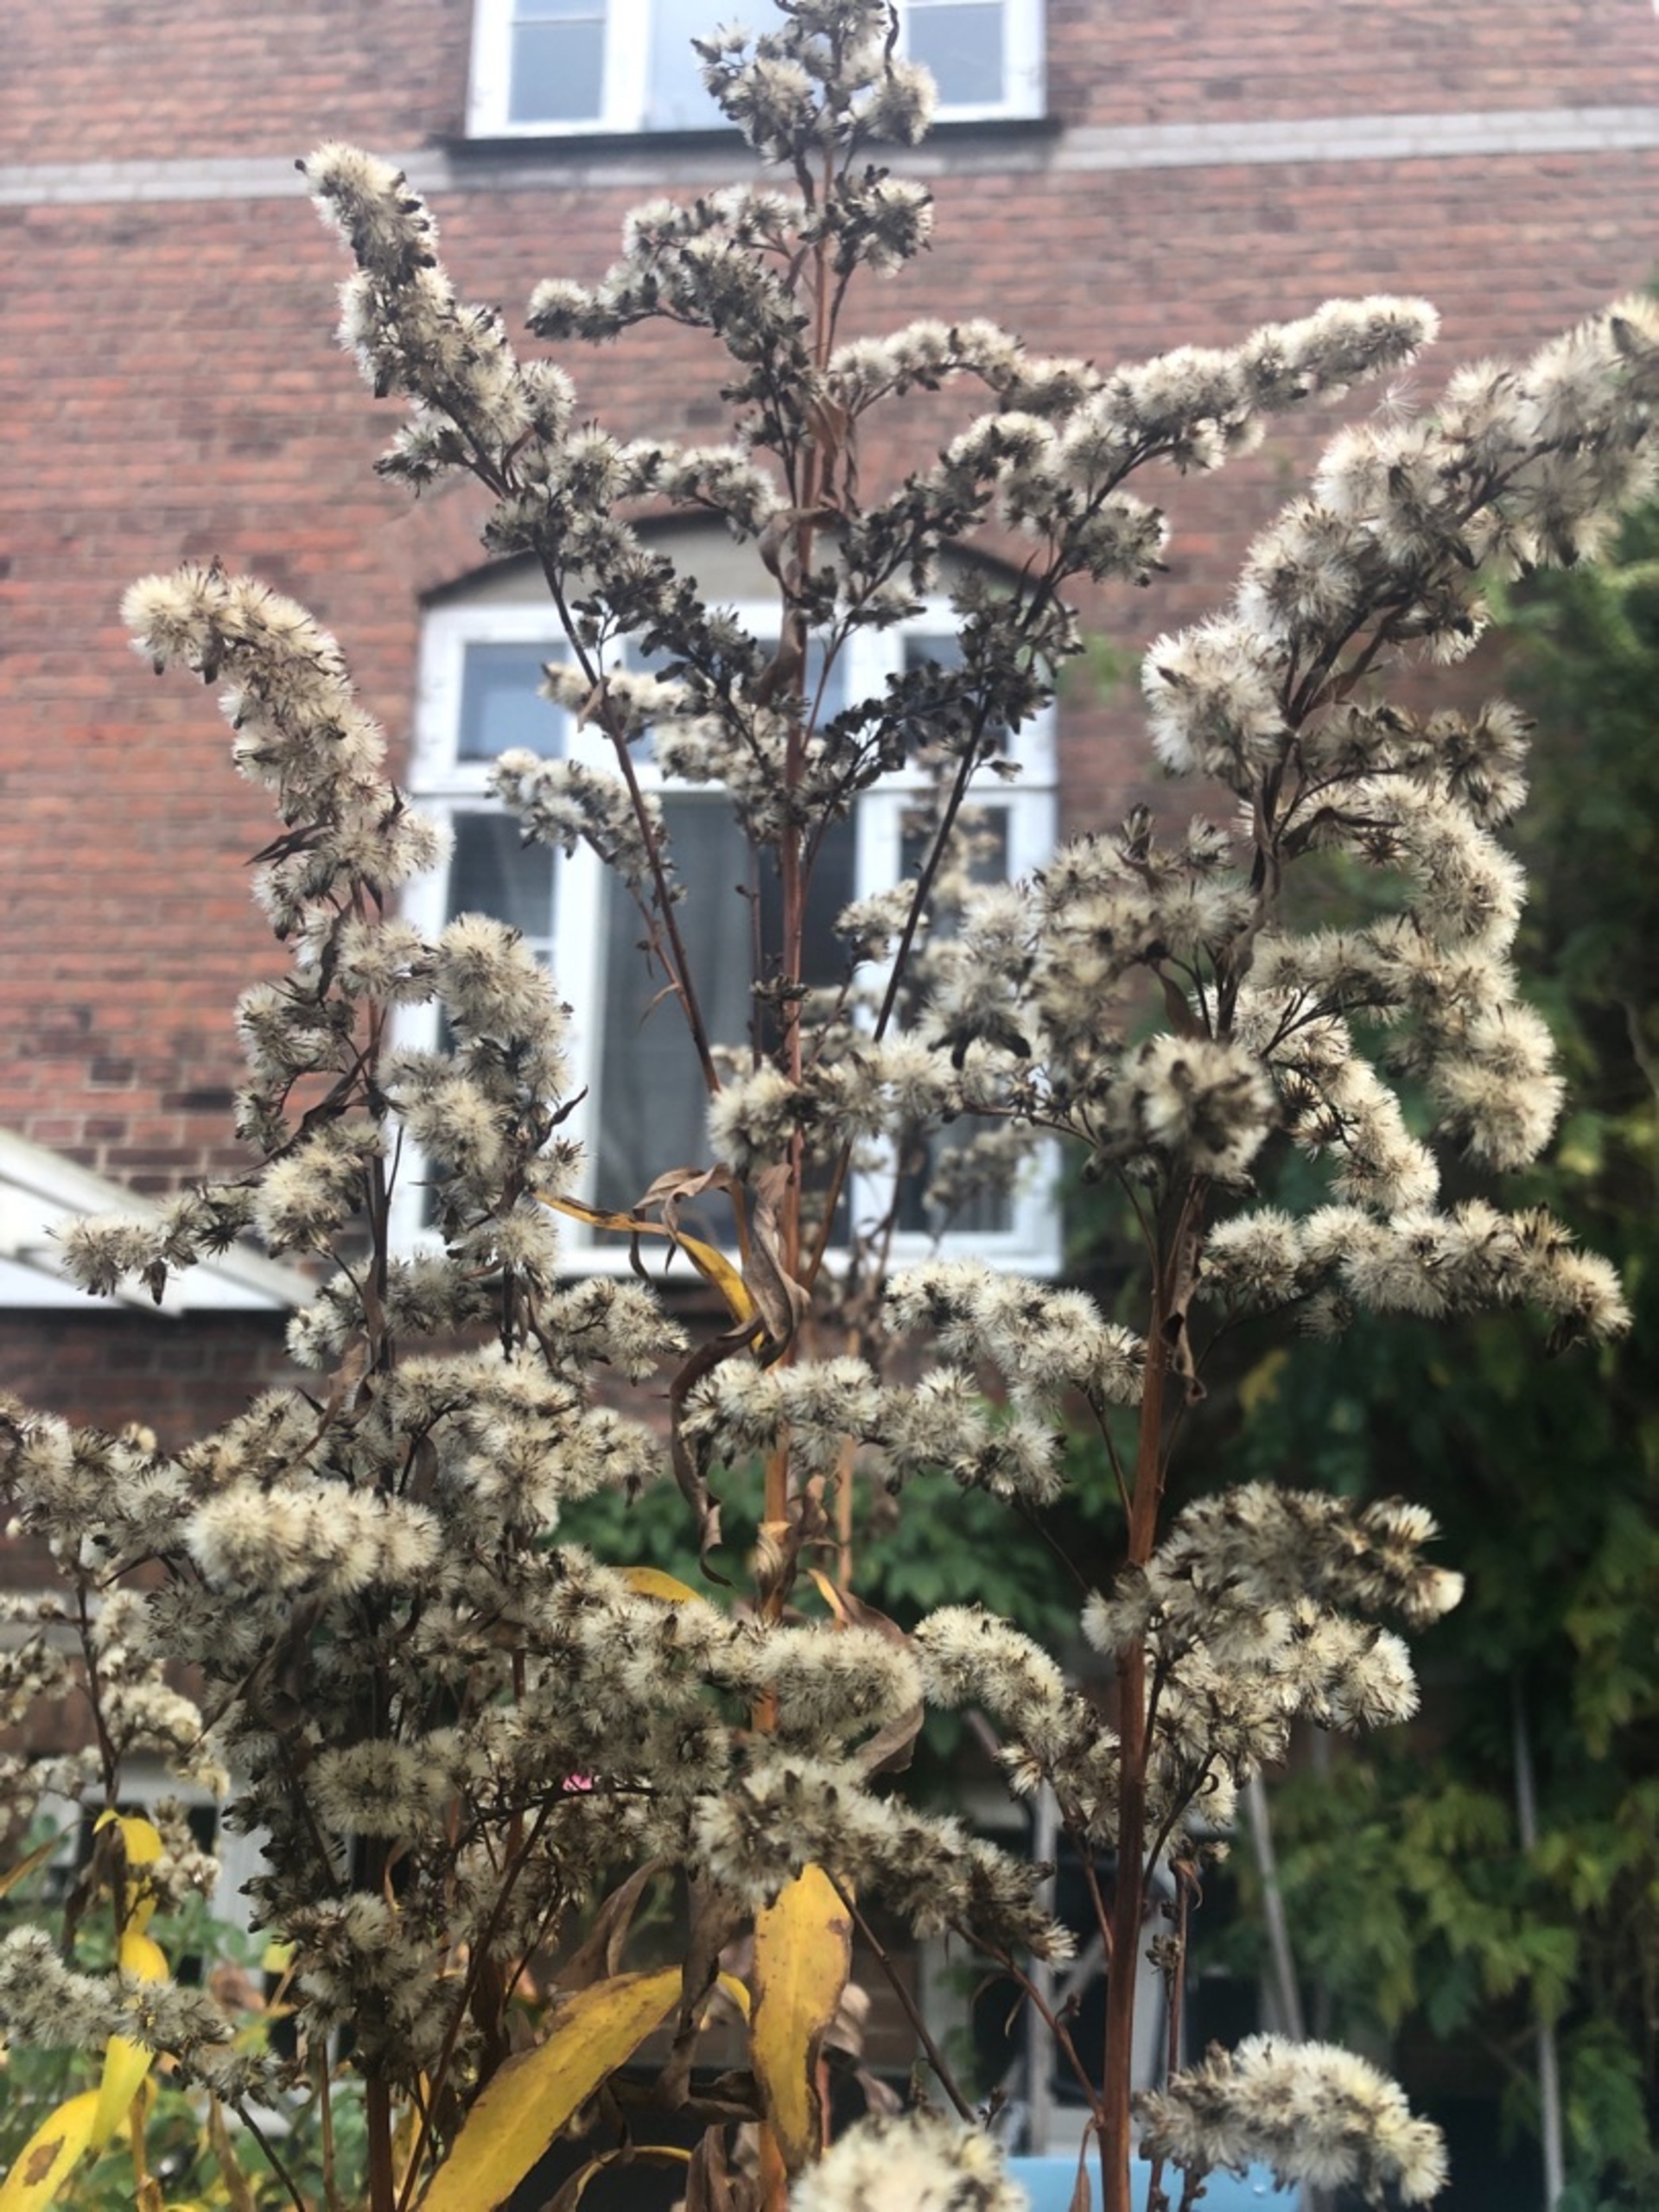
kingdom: Plantae
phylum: Tracheophyta
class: Magnoliopsida
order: Asterales
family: Asteraceae
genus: Solidago
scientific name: Solidago
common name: Gyldenrisslægten
